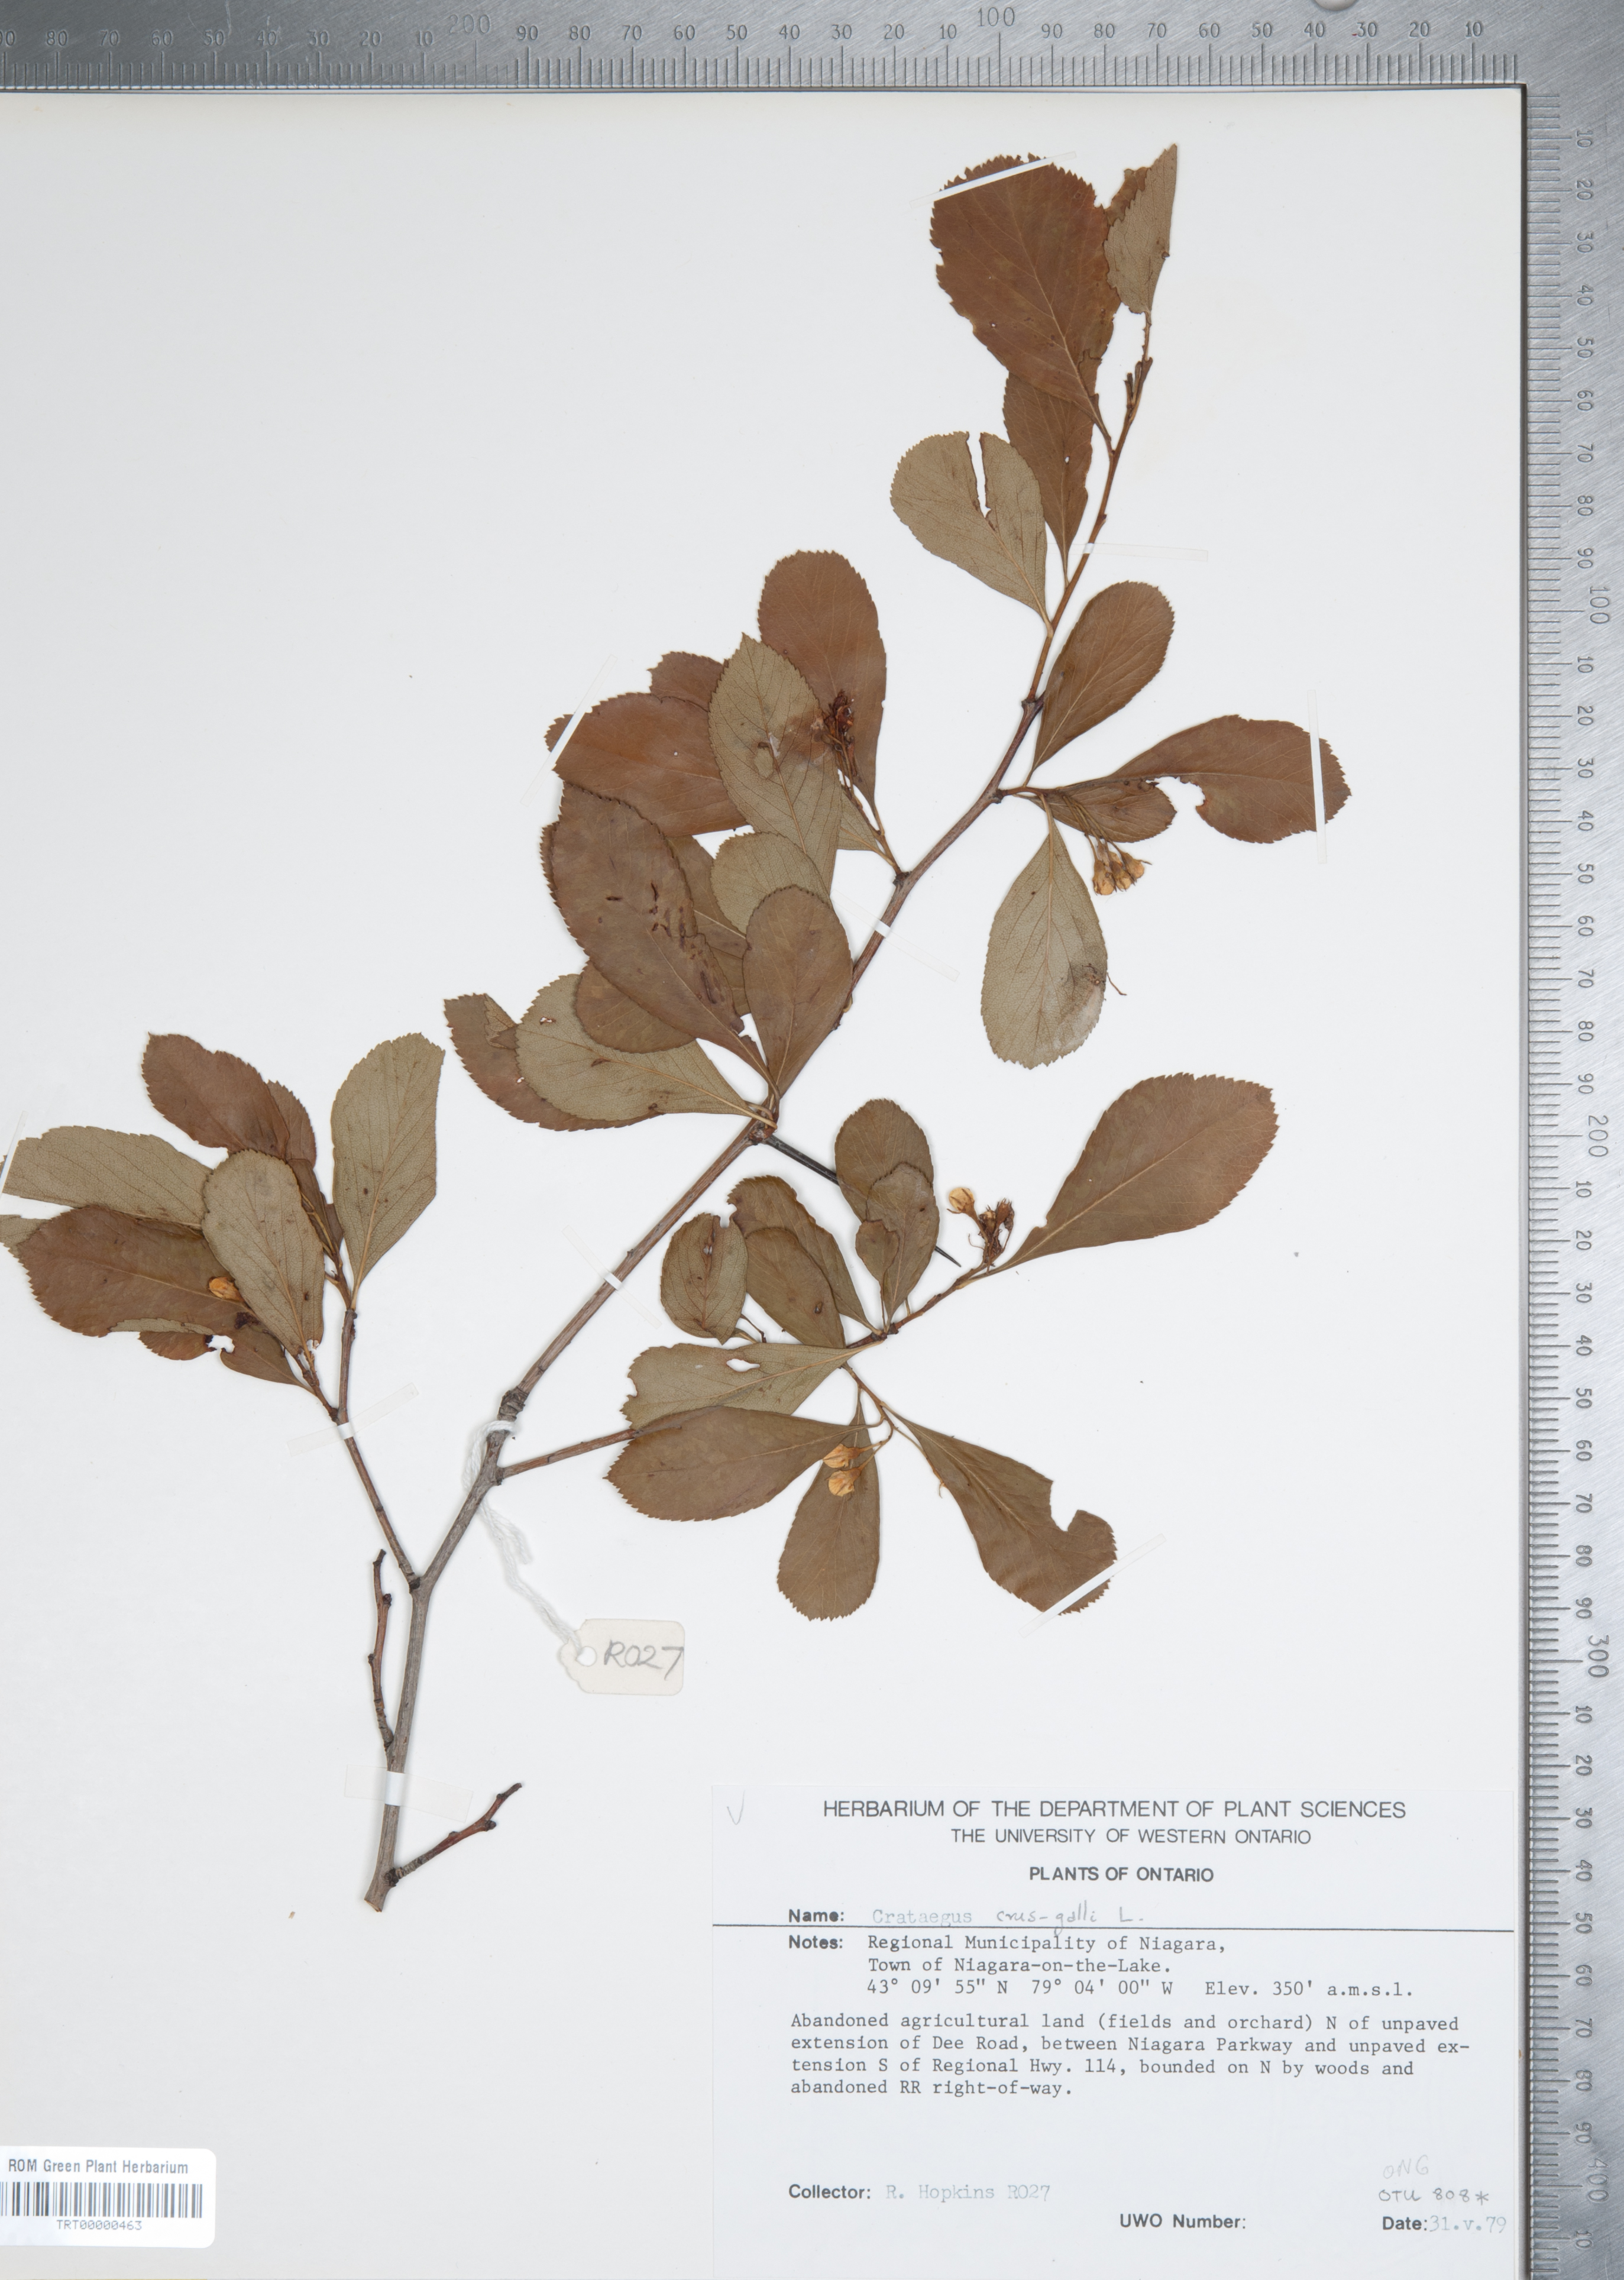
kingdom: Plantae
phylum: Tracheophyta
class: Magnoliopsida
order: Rosales
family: Rosaceae
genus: Crataegus
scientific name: Crataegus crus-galli
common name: Cockspurthorn
